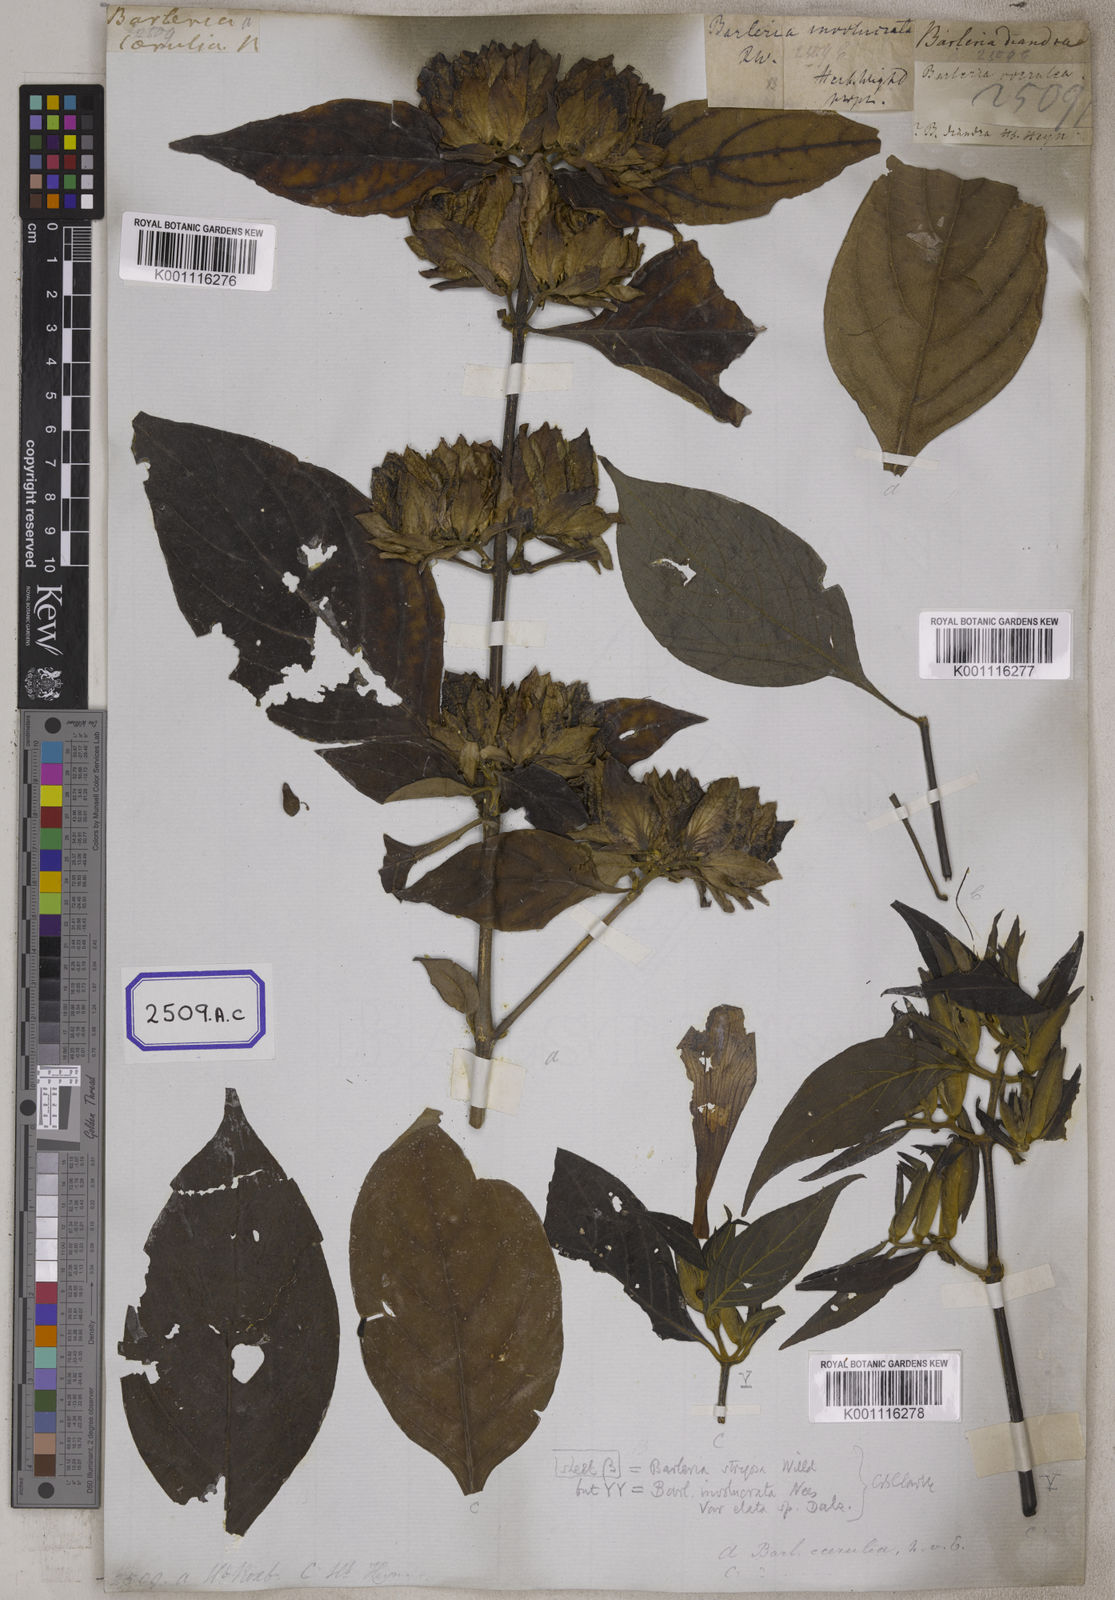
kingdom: Plantae
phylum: Tracheophyta
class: Magnoliopsida
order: Lamiales
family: Acanthaceae
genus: Barleria
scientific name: Barleria strigosa
